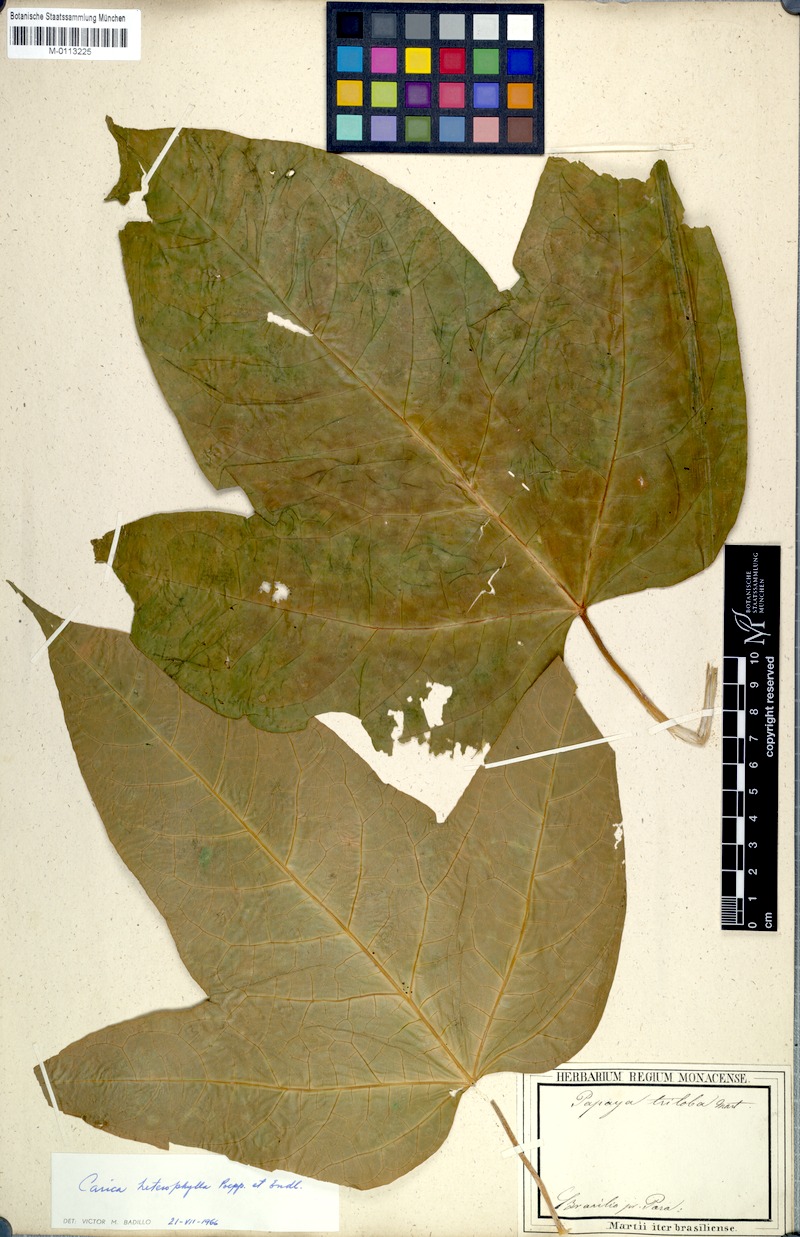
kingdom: Plantae
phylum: Tracheophyta
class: Magnoliopsida
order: Brassicales
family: Caricaceae
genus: Vasconcellea
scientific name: Vasconcellea microcarpa
